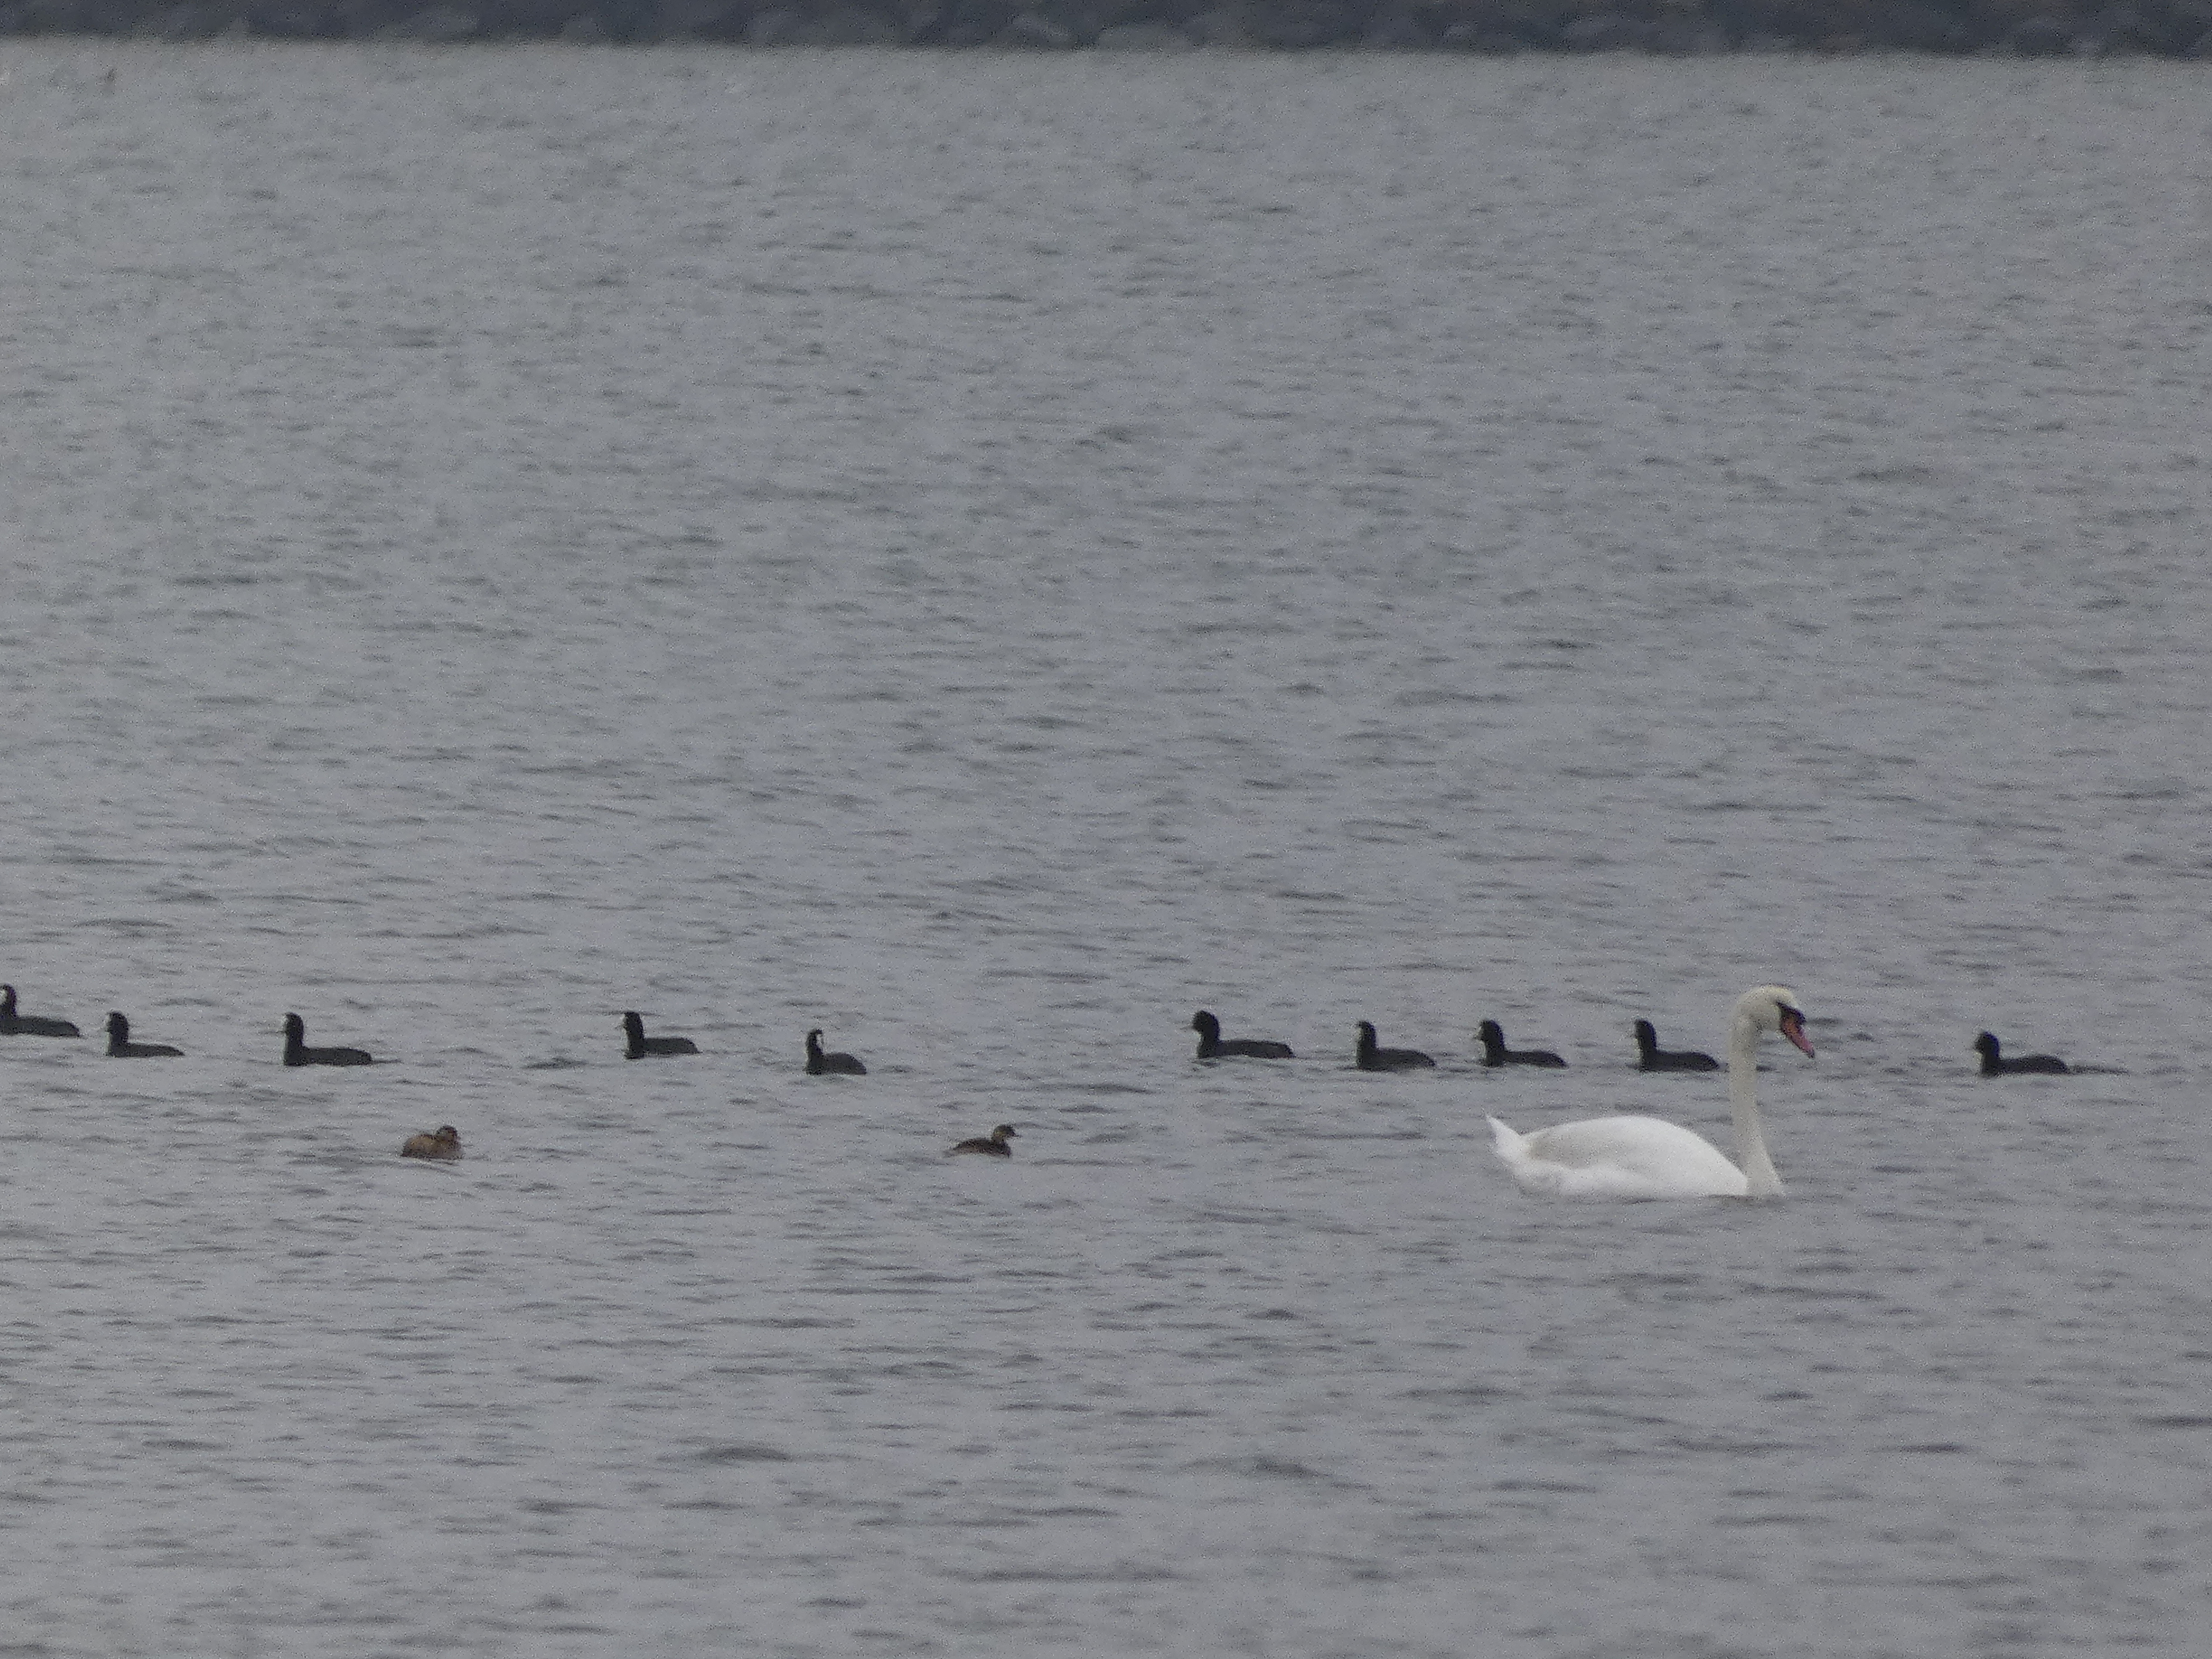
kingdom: Animalia
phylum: Chordata
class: Aves
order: Podicipediformes
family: Podicipedidae
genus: Tachybaptus
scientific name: Tachybaptus ruficollis
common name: Lille lappedykker
